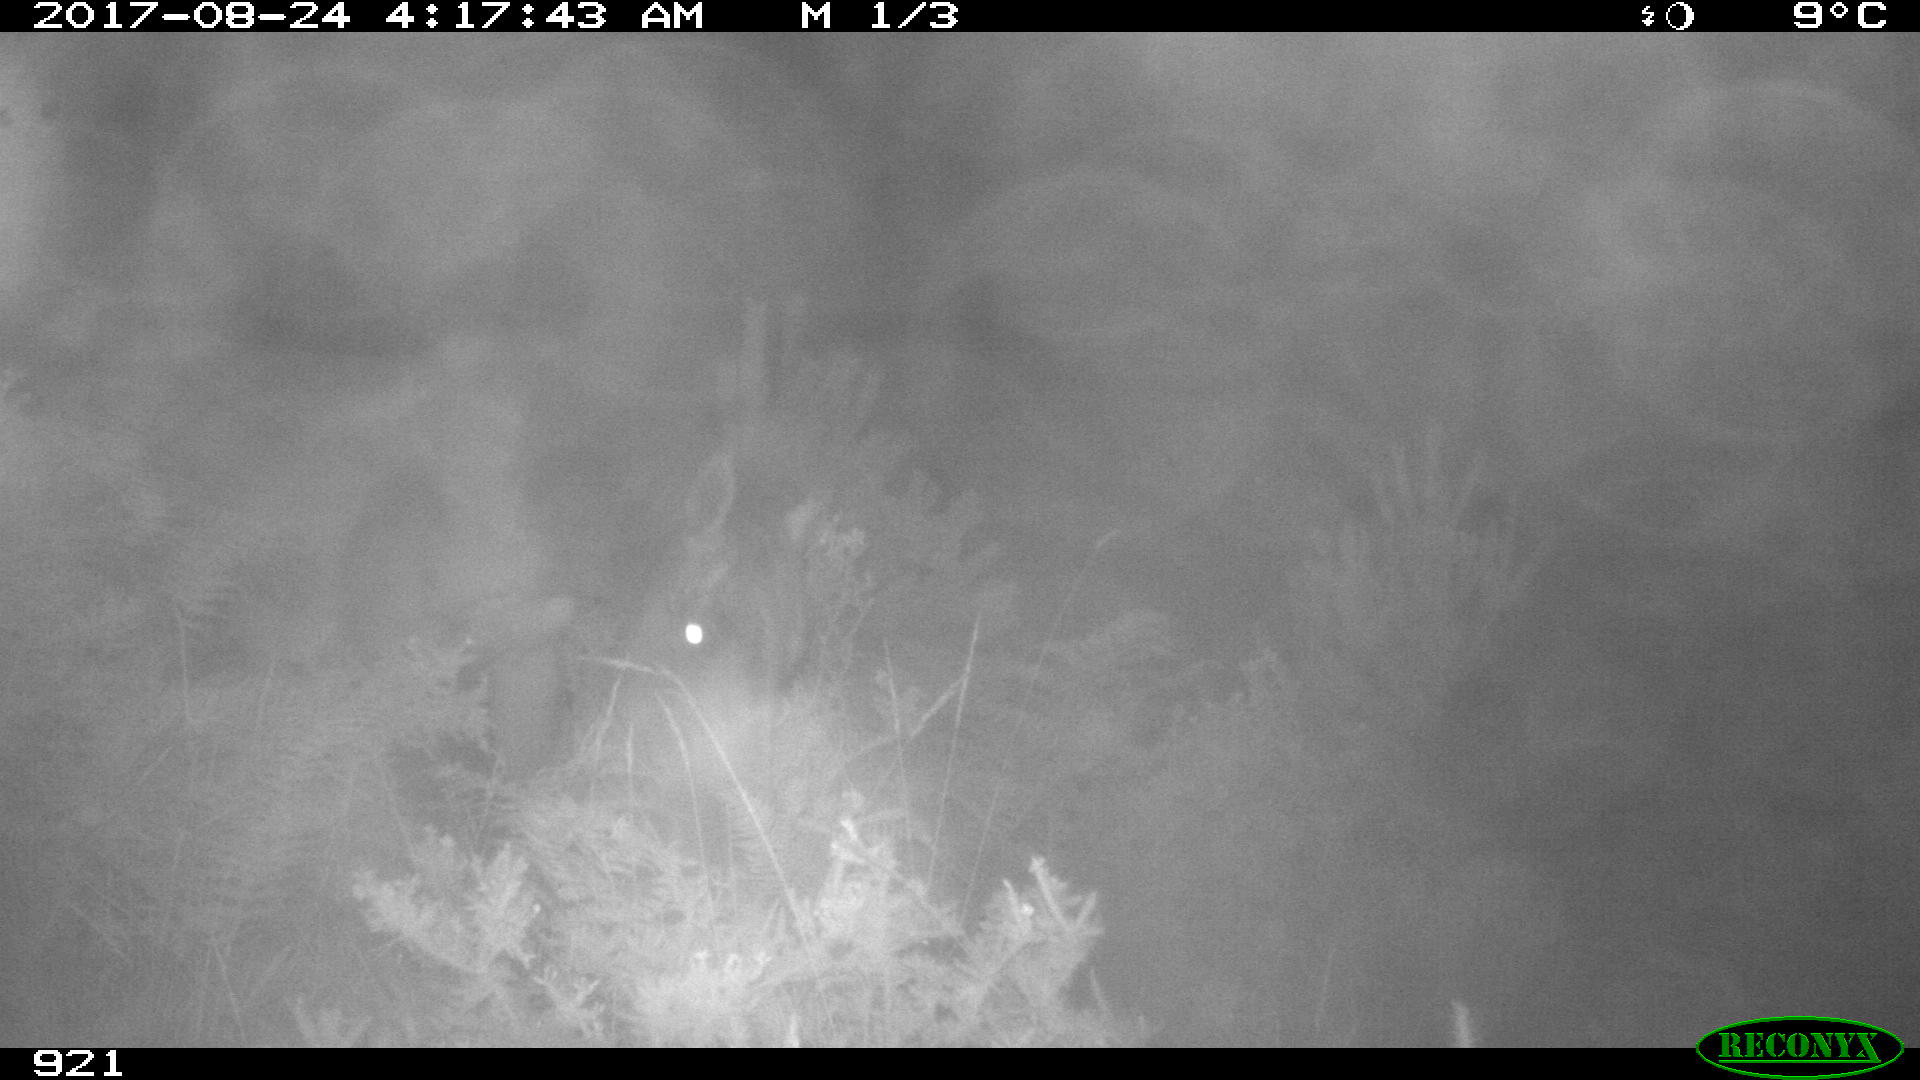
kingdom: Animalia
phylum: Chordata
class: Mammalia
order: Perissodactyla
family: Equidae
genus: Equus
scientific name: Equus caballus
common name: Horse
